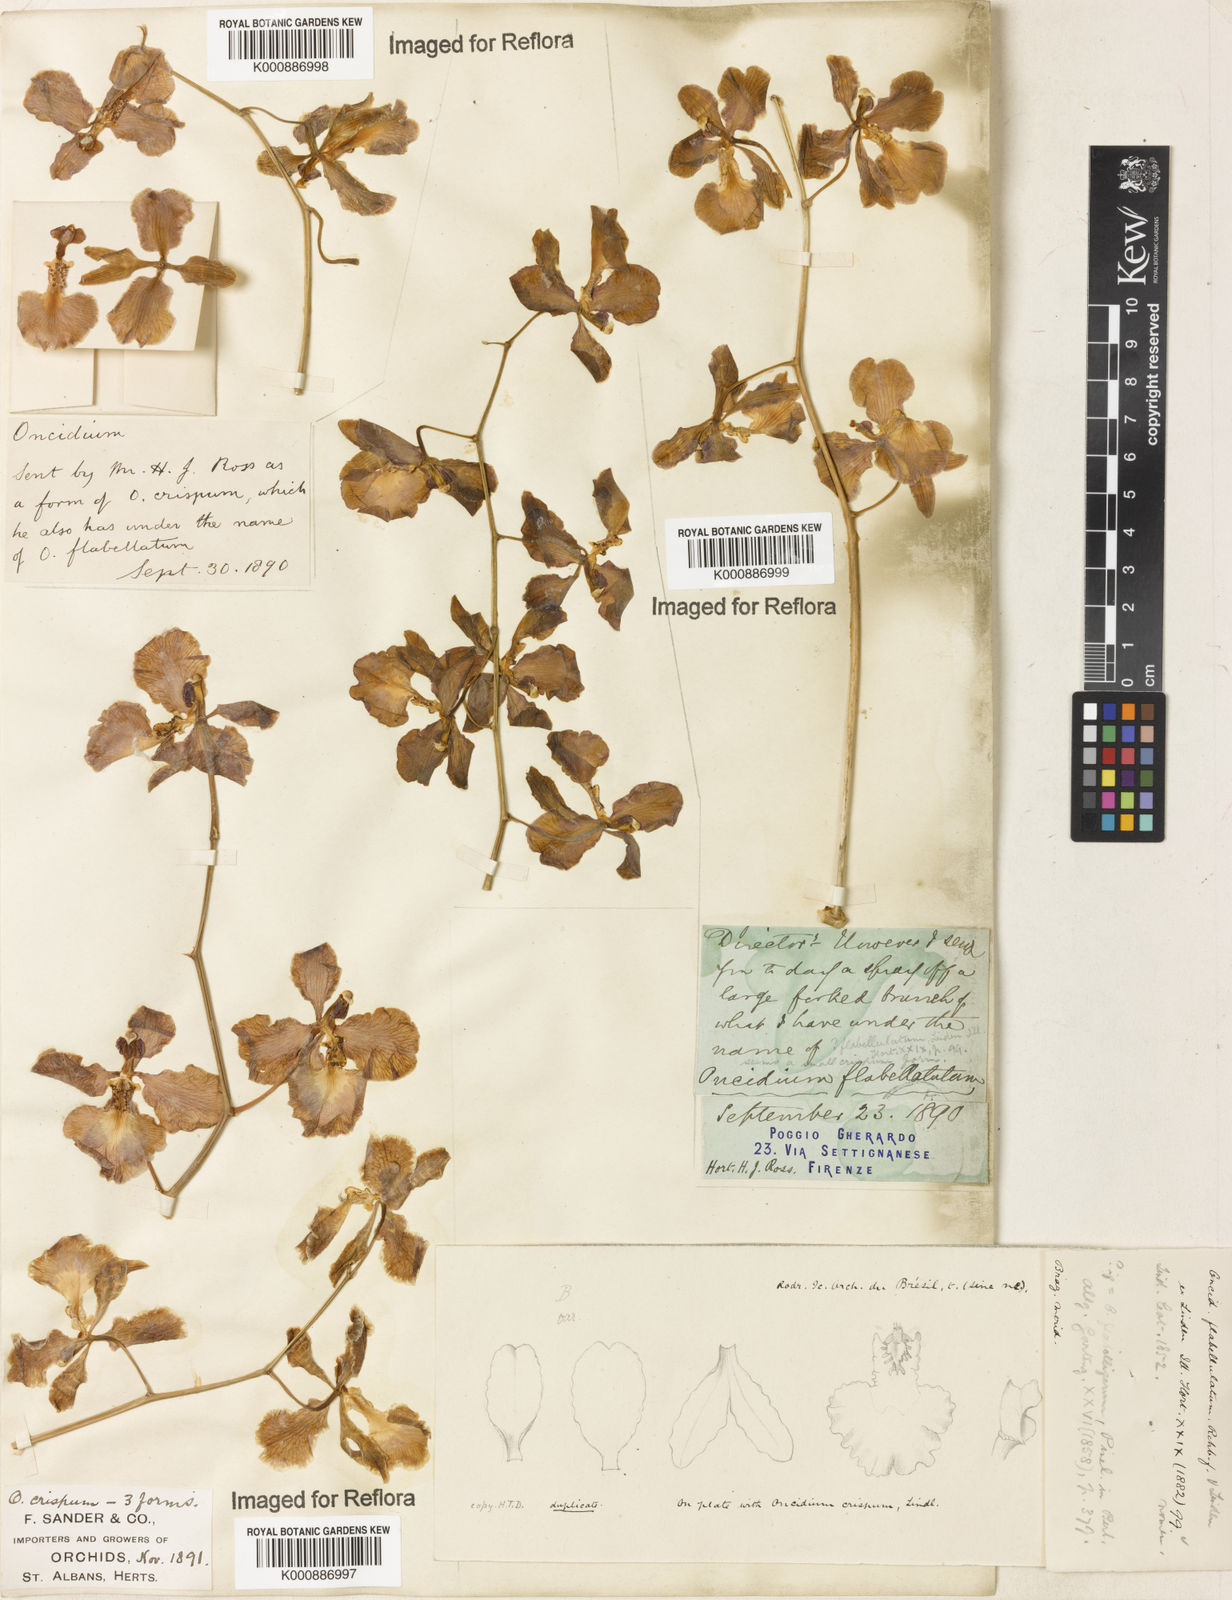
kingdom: Plantae
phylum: Tracheophyta
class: Liliopsida
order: Asparagales
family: Orchidaceae
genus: Gomesa
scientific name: Gomesa imperatoris-maximiliani
